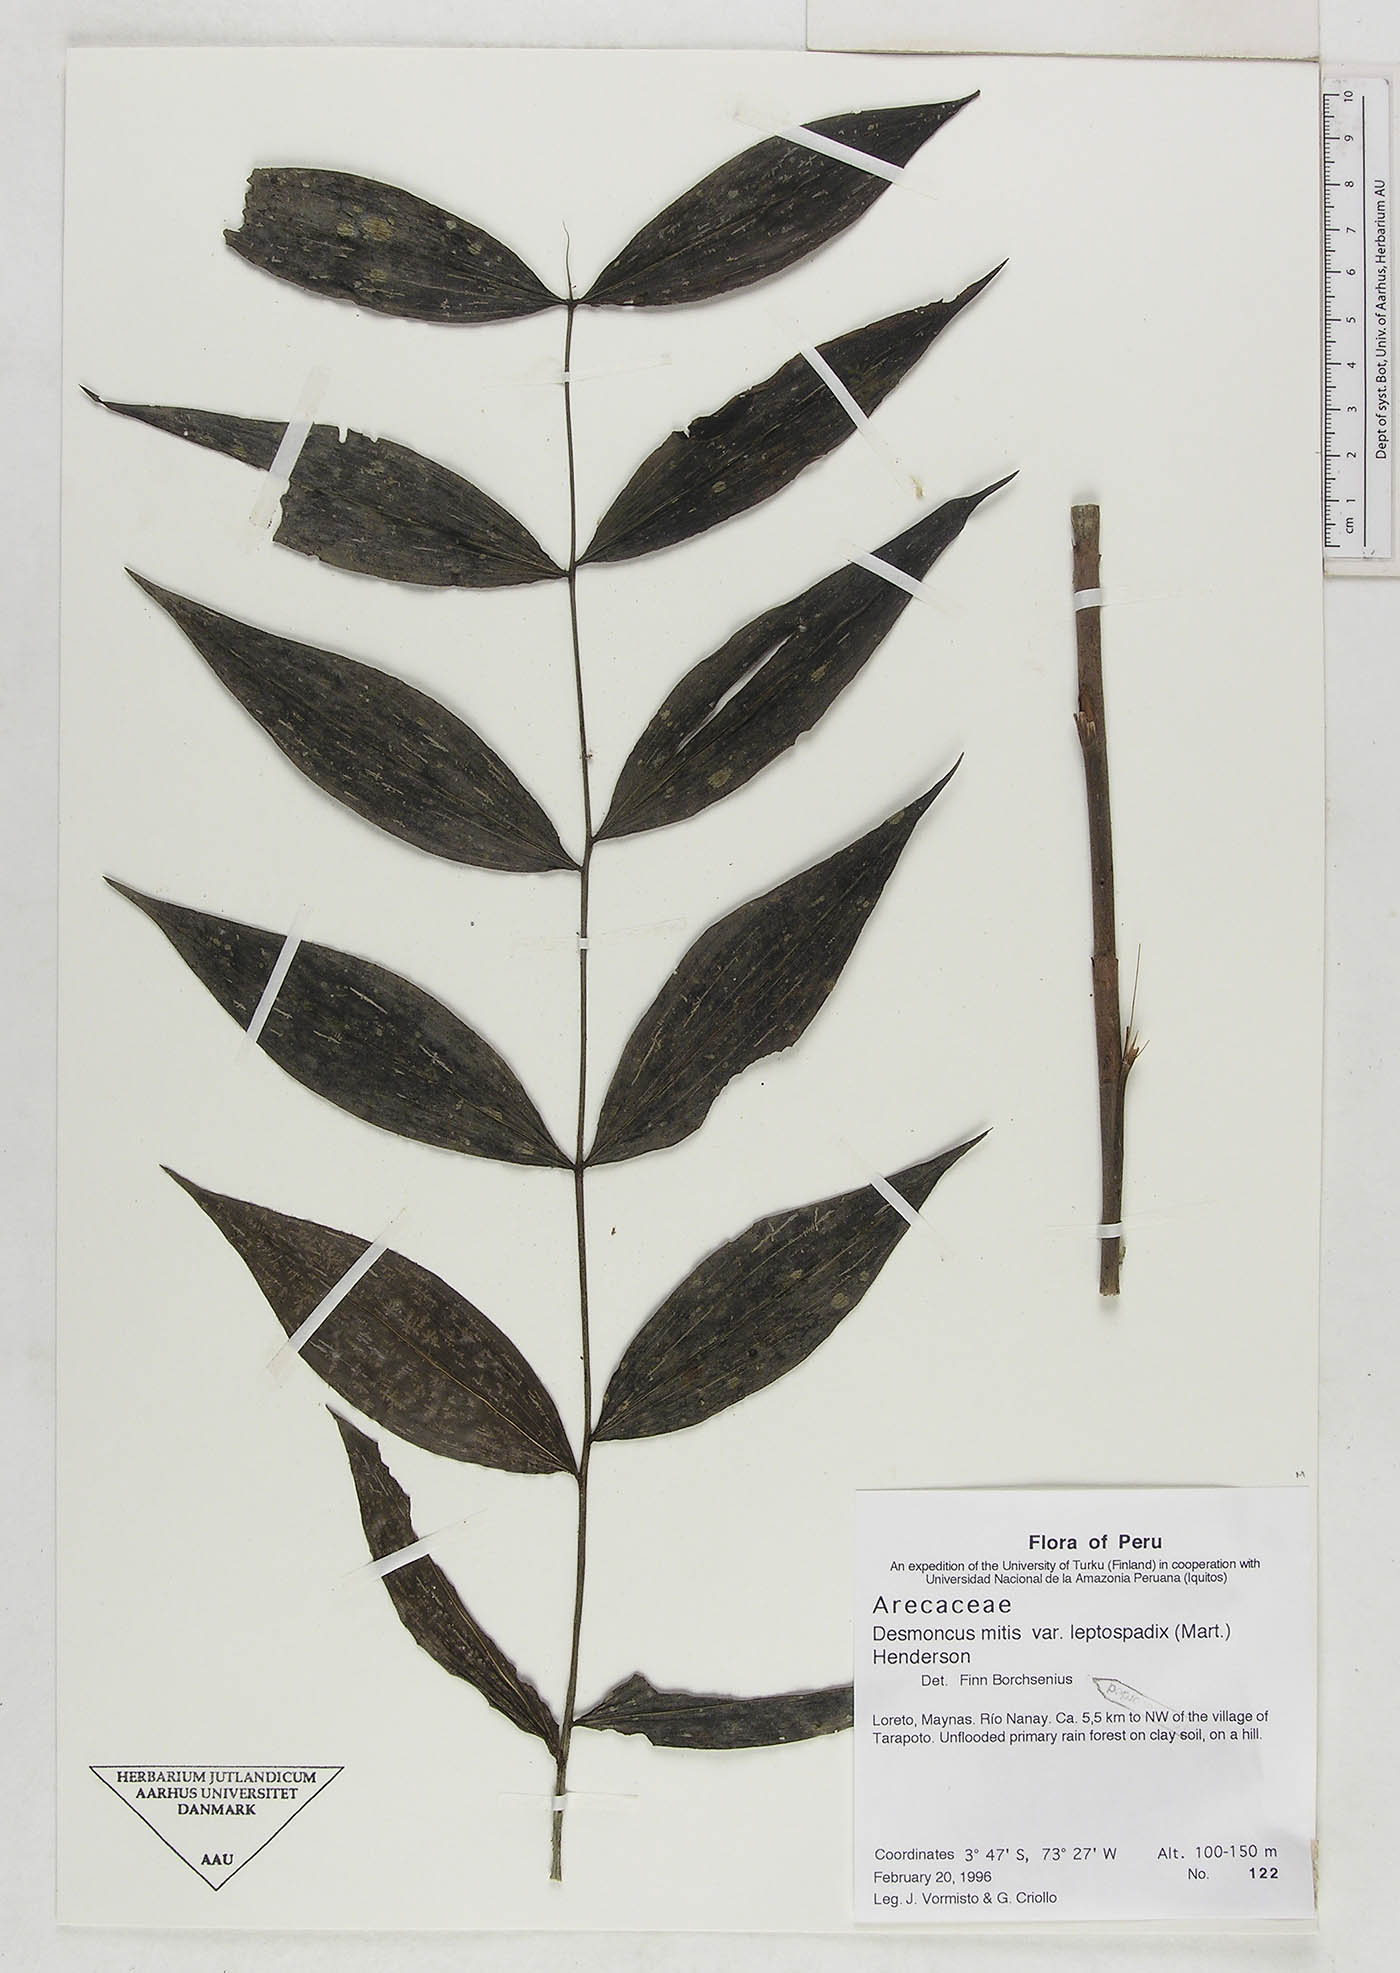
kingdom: Plantae
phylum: Tracheophyta
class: Liliopsida
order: Arecales
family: Arecaceae
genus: Desmoncus
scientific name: Desmoncus mitis
